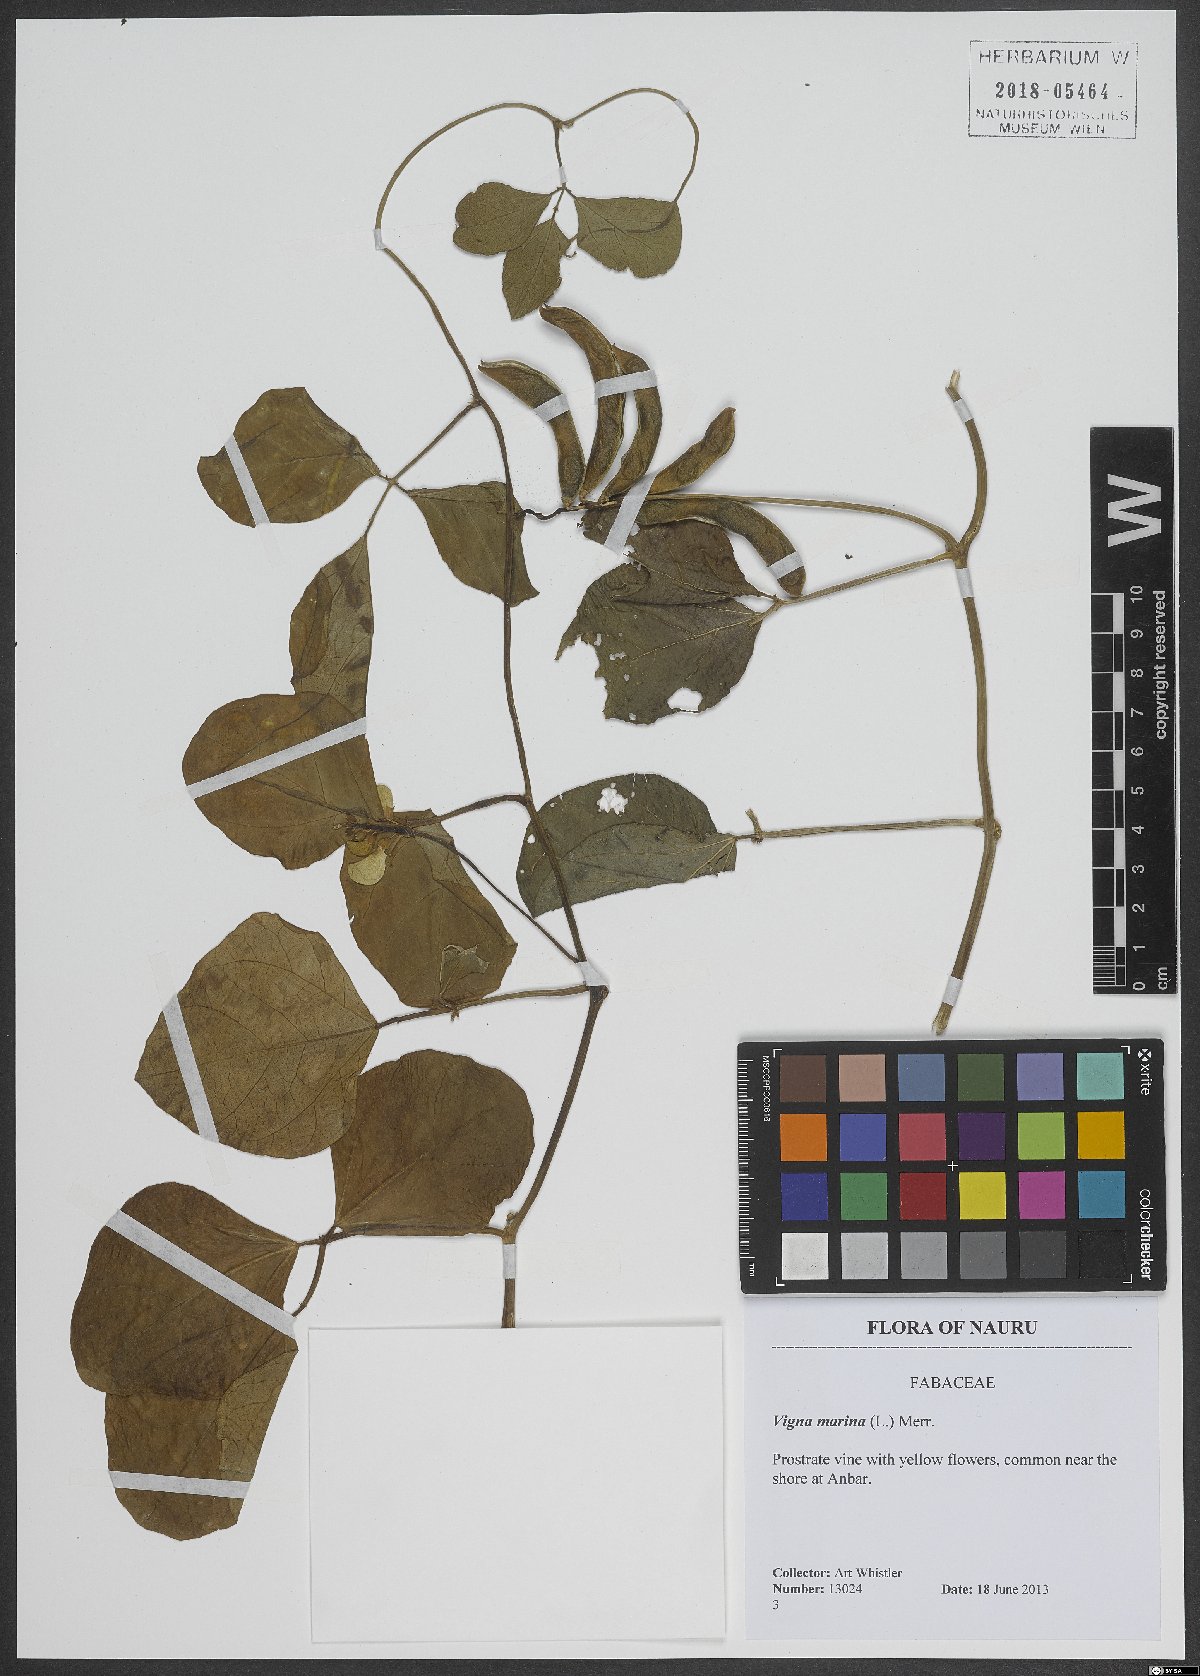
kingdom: Plantae
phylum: Tracheophyta
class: Magnoliopsida
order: Fabales
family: Fabaceae
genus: Vigna
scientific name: Vigna marina
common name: Dune-bean
